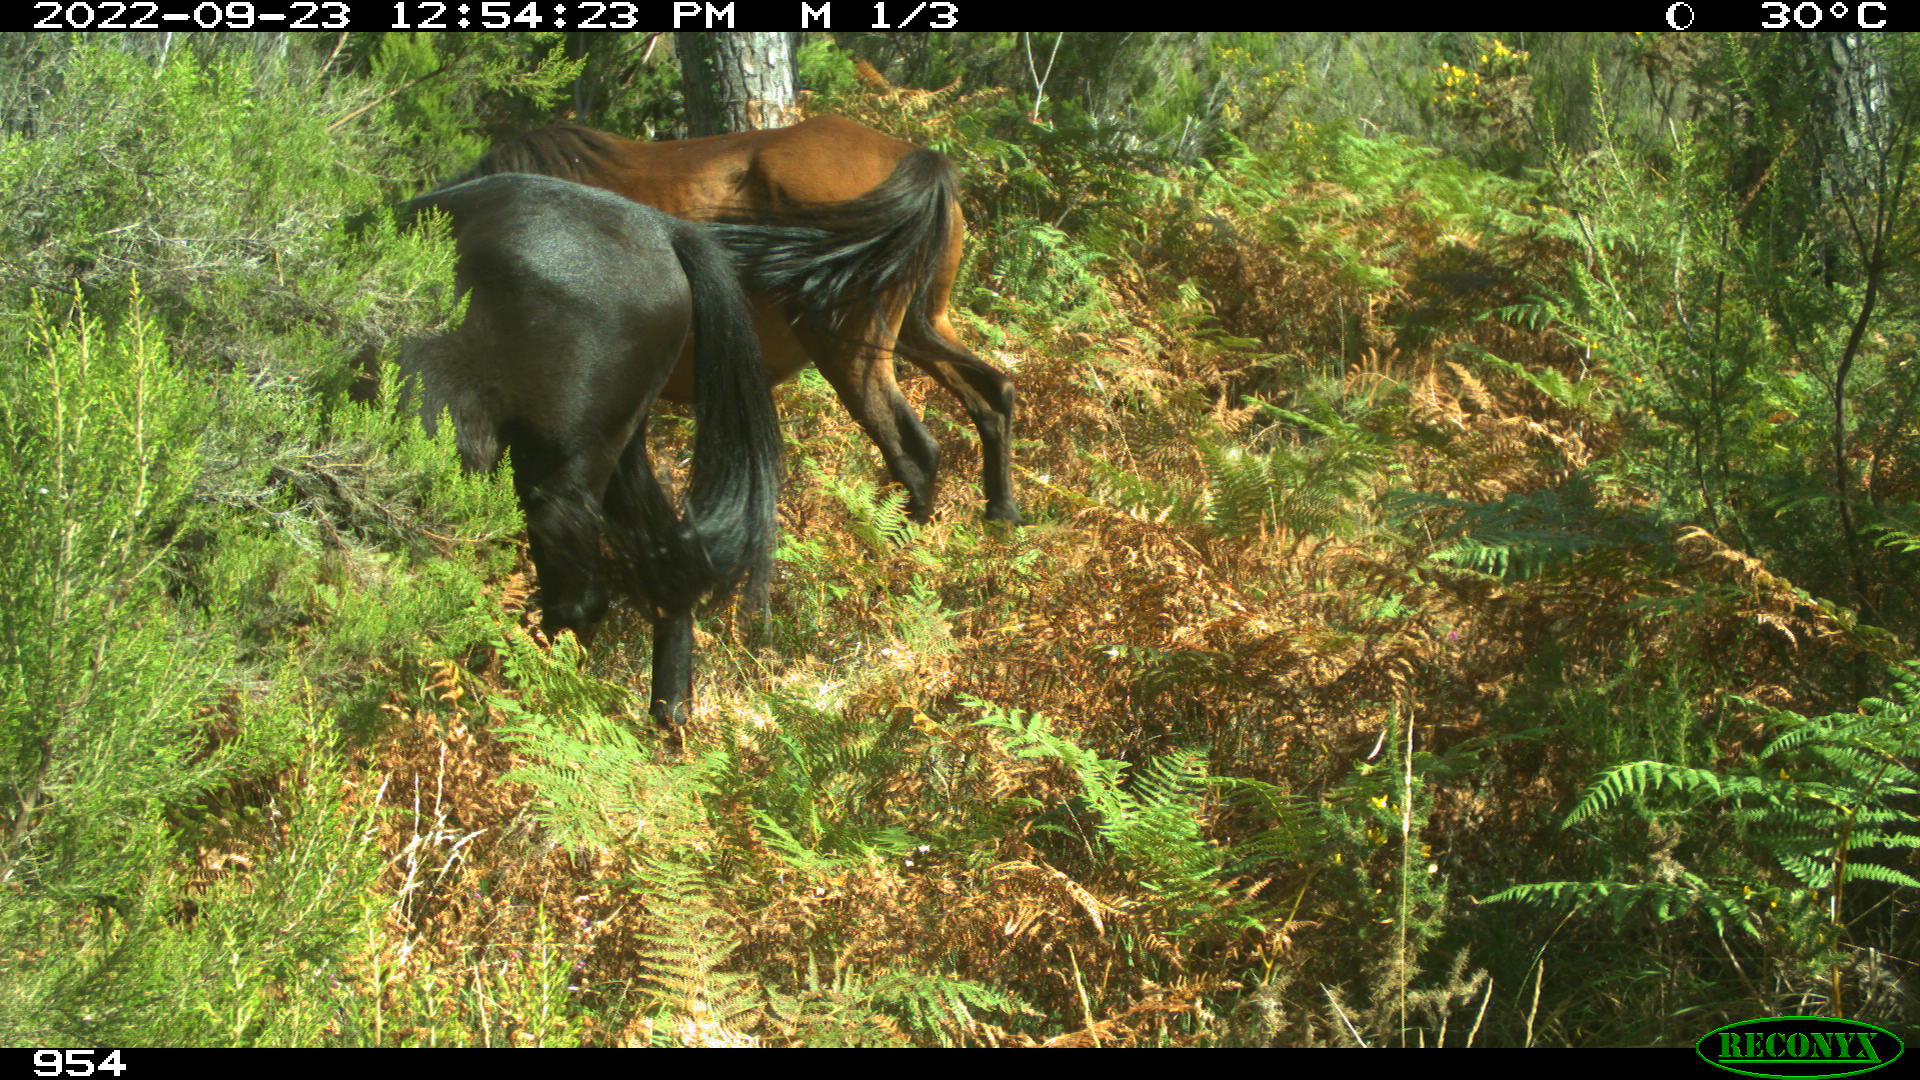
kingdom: Animalia
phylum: Chordata
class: Mammalia
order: Perissodactyla
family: Equidae
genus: Equus
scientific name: Equus caballus
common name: Horse
